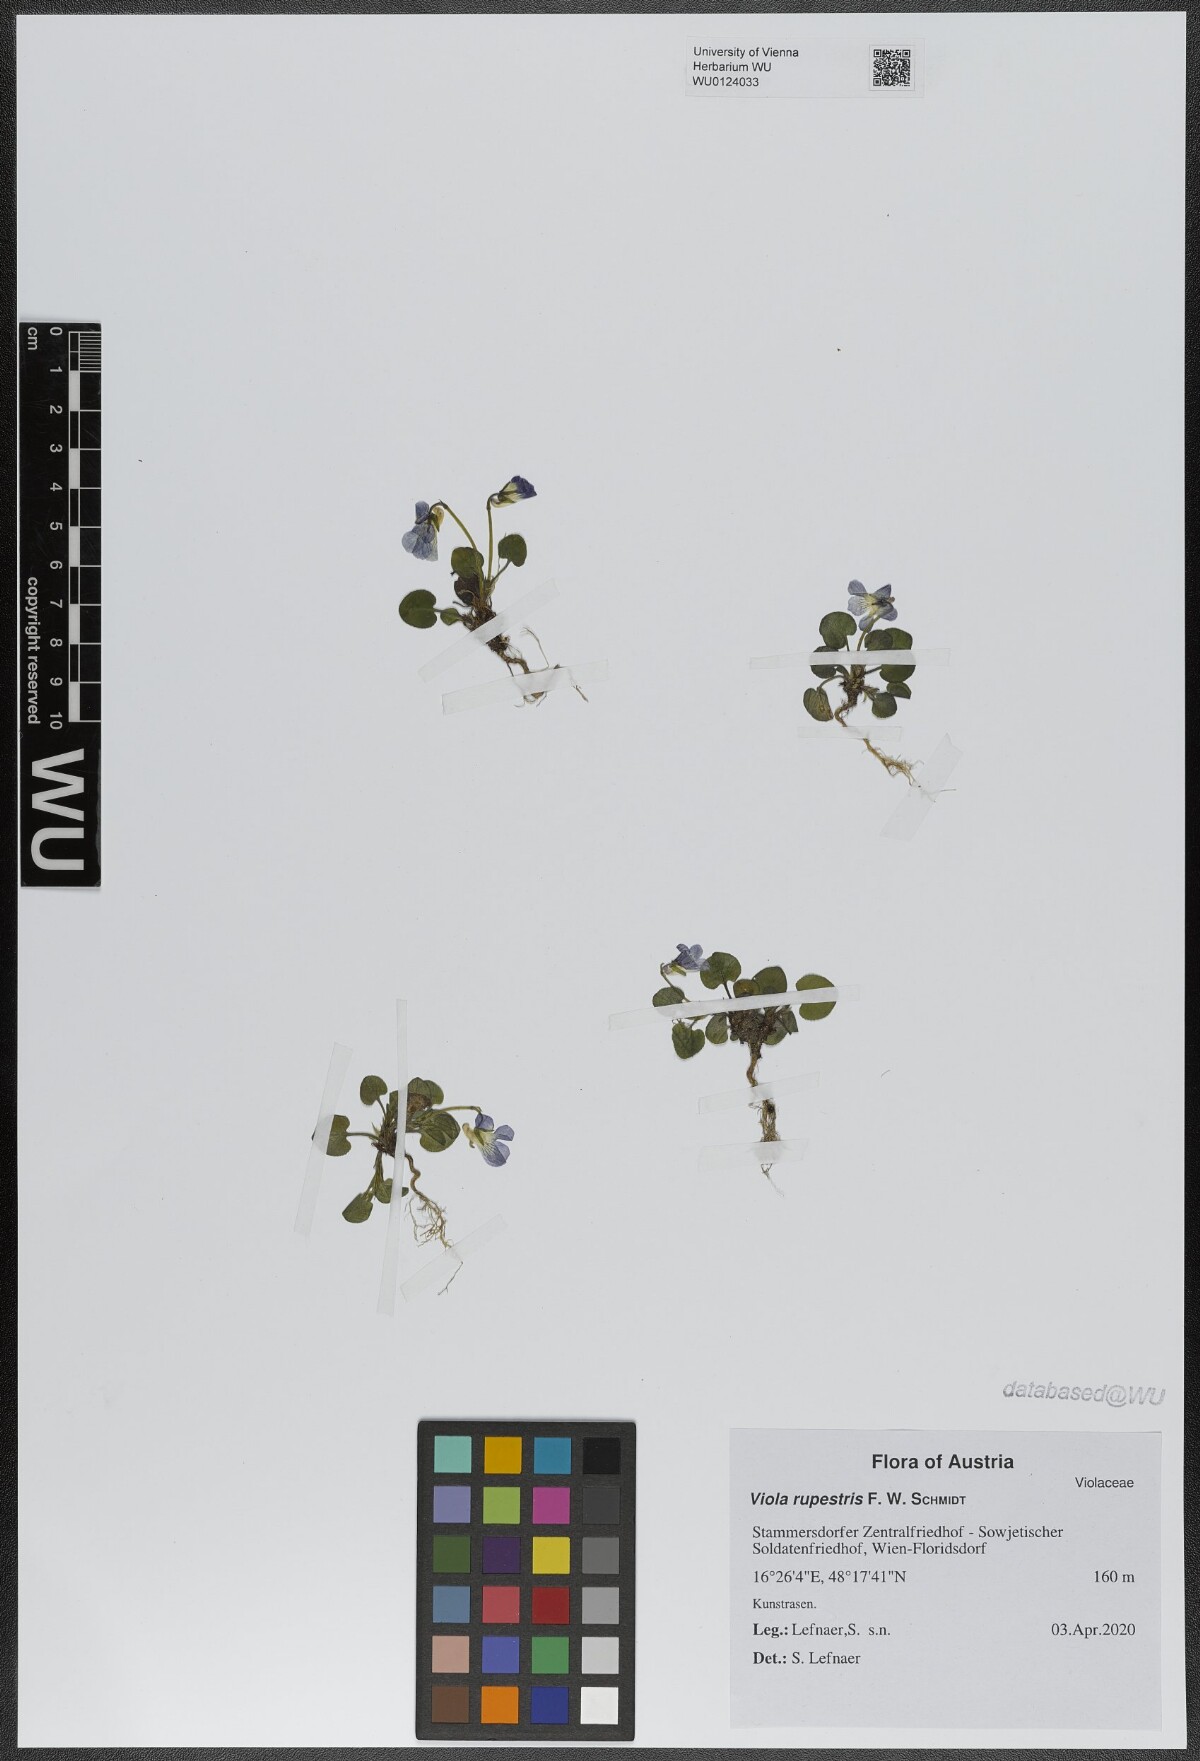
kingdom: Plantae
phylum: Tracheophyta
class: Magnoliopsida
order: Malpighiales
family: Violaceae
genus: Viola
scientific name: Viola rupestris
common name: Teesdale violet
